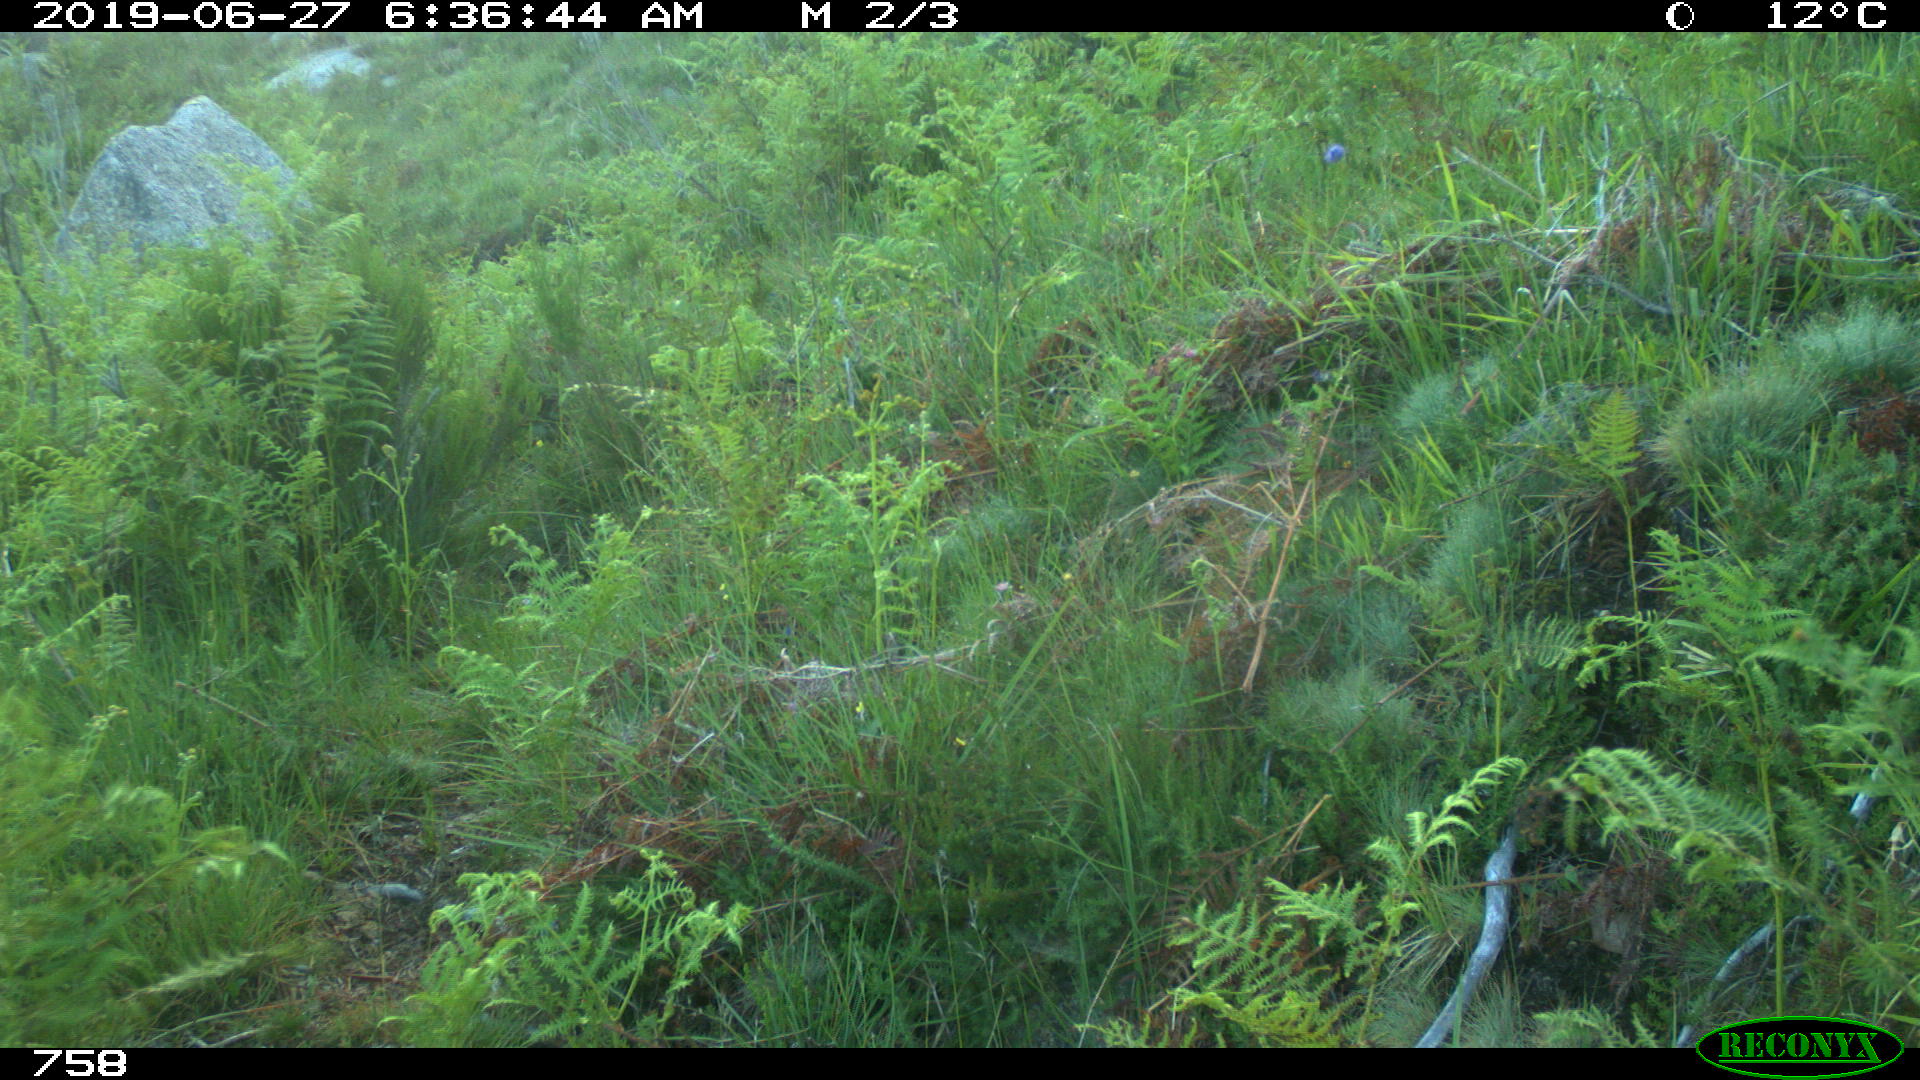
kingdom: Animalia
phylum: Chordata
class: Mammalia
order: Artiodactyla
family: Cervidae
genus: Capreolus
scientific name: Capreolus capreolus
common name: Western roe deer
